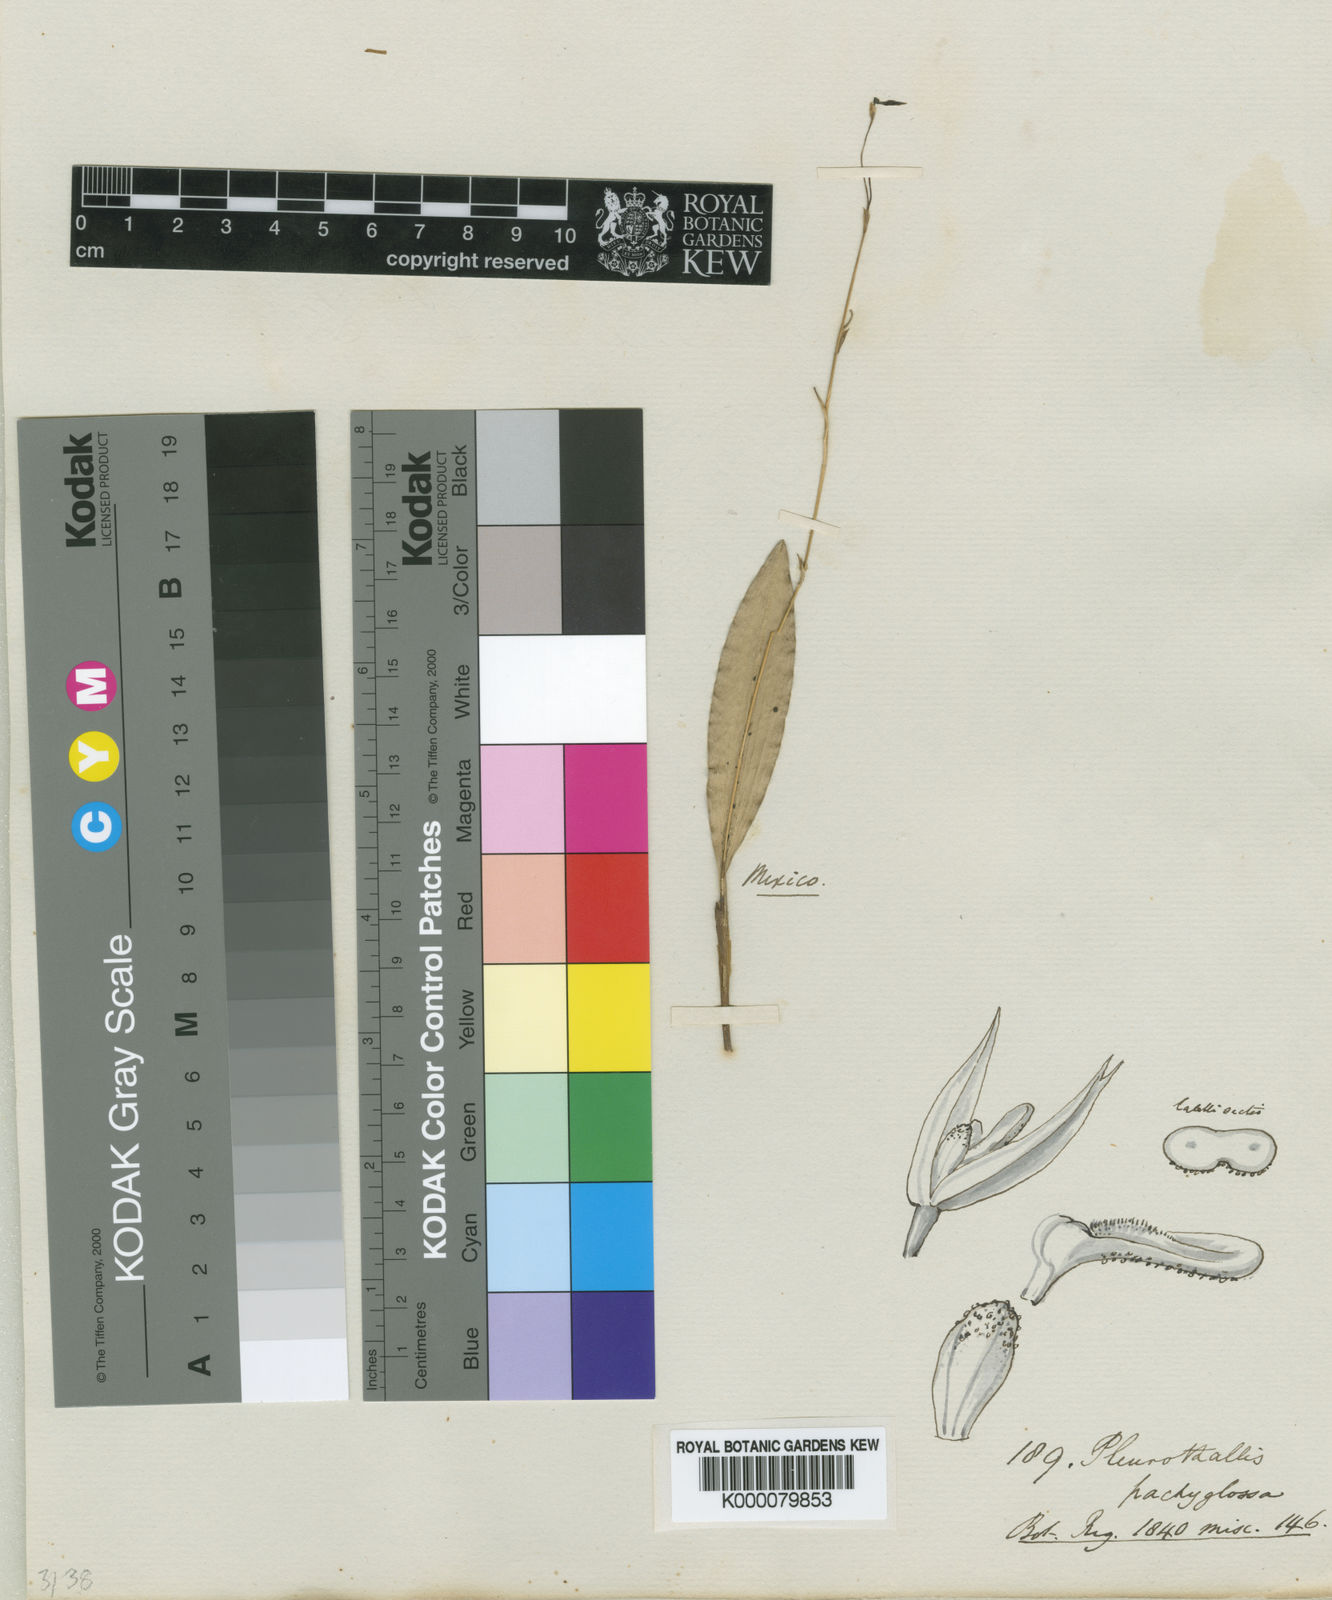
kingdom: Plantae
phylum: Tracheophyta
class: Liliopsida
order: Asparagales
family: Orchidaceae
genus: Stelis
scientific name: Stelis pachyglossa
